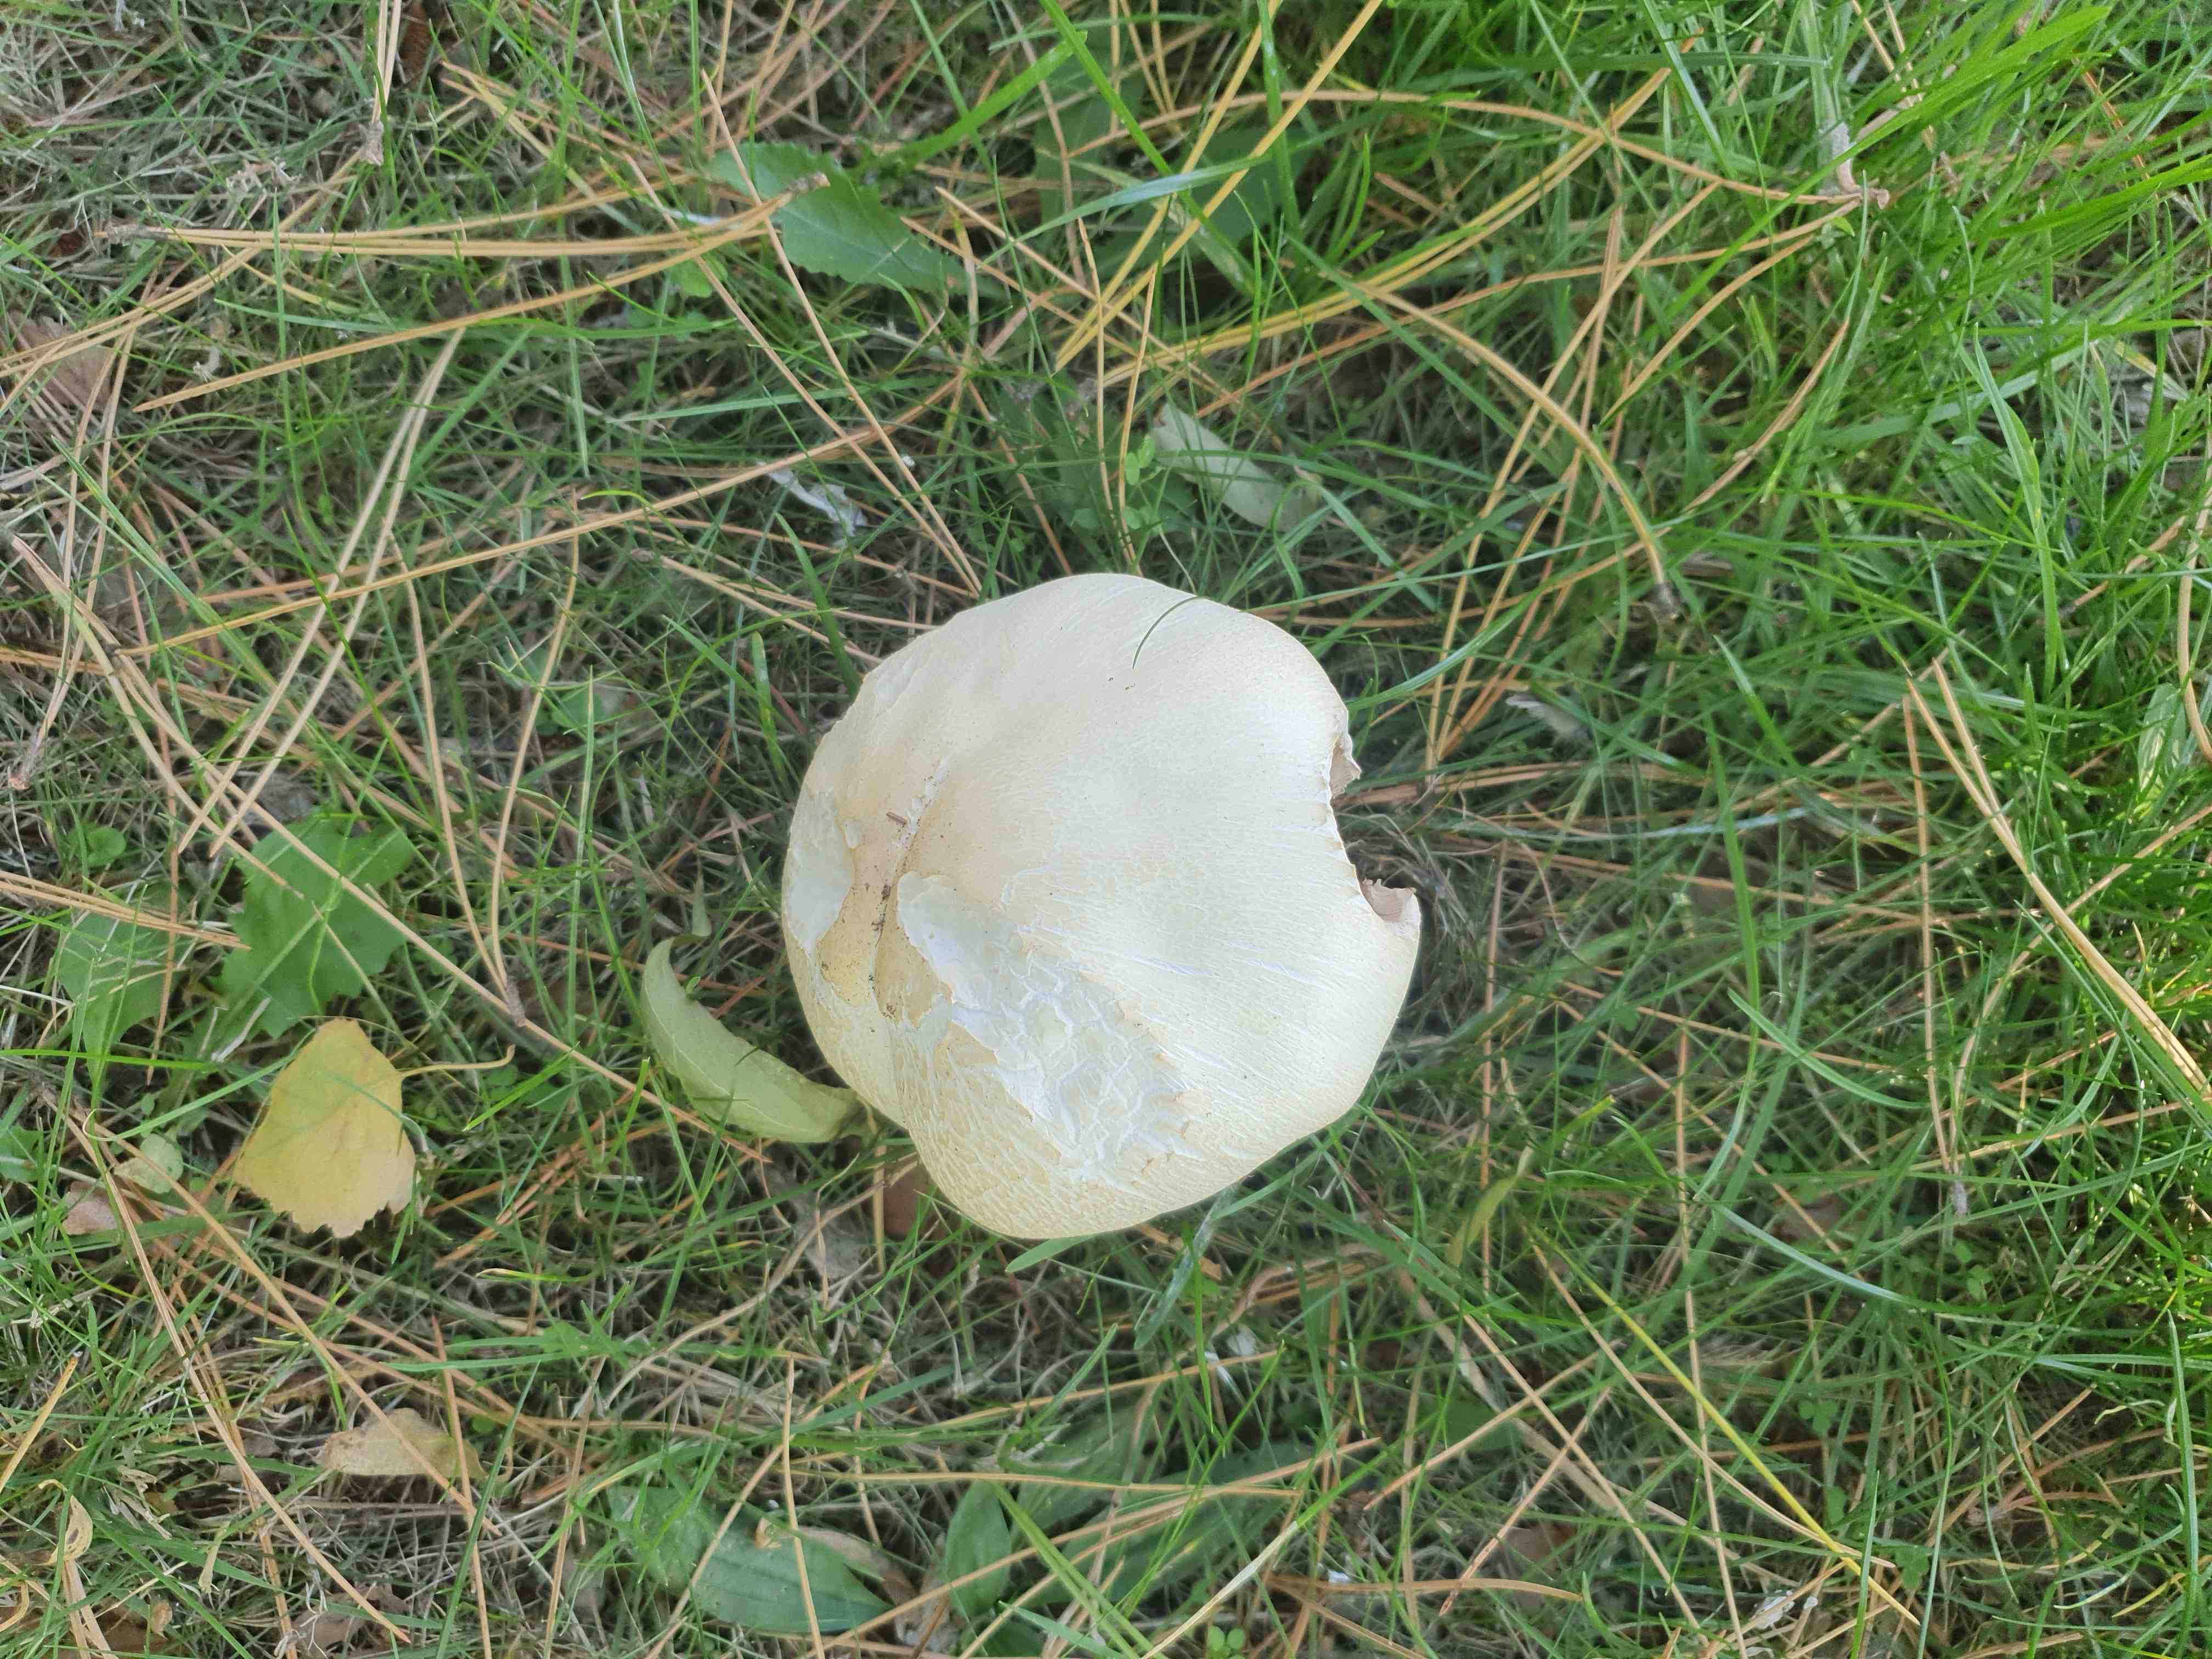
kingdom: Fungi
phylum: Basidiomycota
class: Agaricomycetes
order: Agaricales
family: Agaricaceae
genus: Agaricus
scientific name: Agaricus
